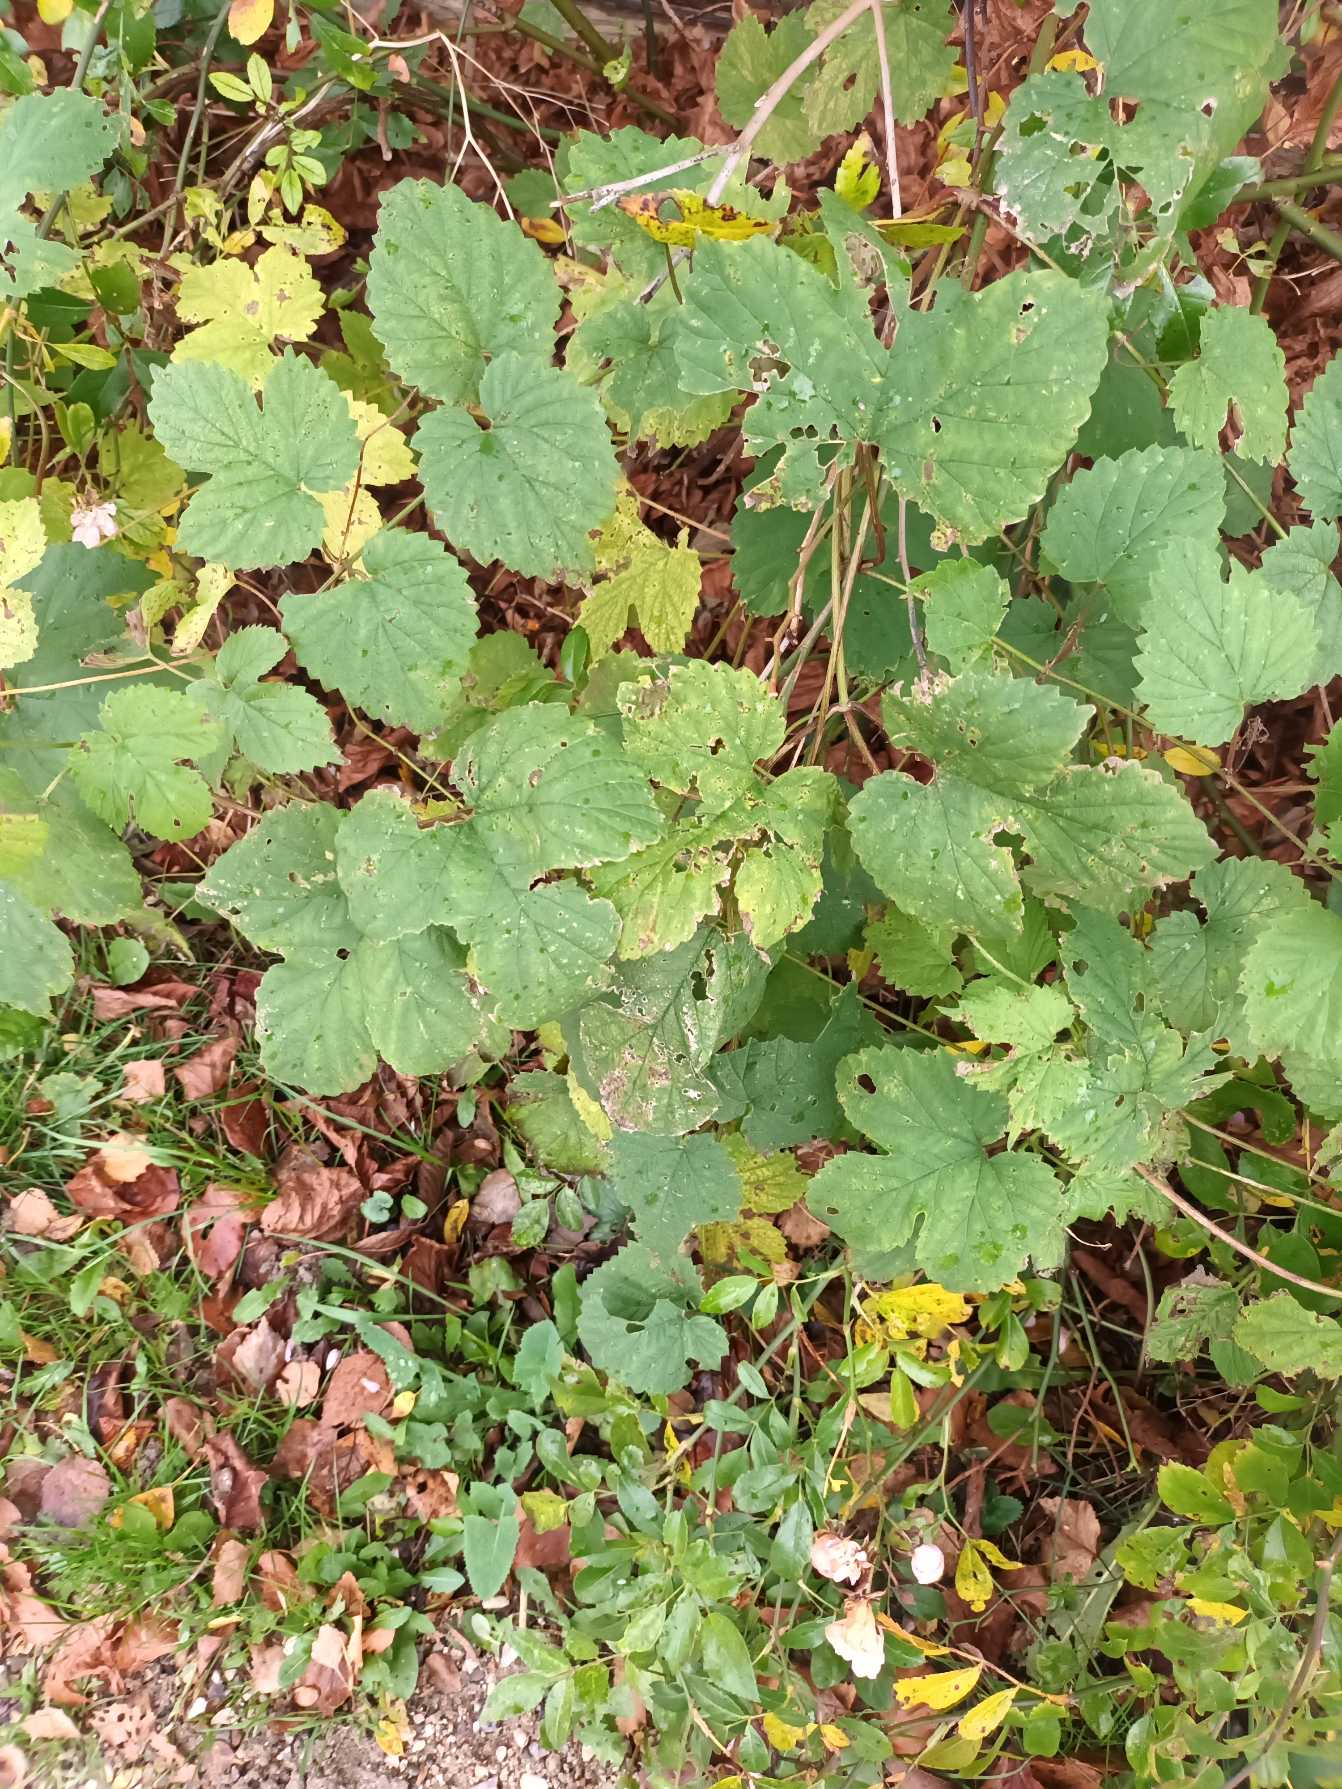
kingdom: Plantae
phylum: Tracheophyta
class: Magnoliopsida
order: Rosales
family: Cannabaceae
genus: Humulus
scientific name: Humulus lupulus
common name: Humle
